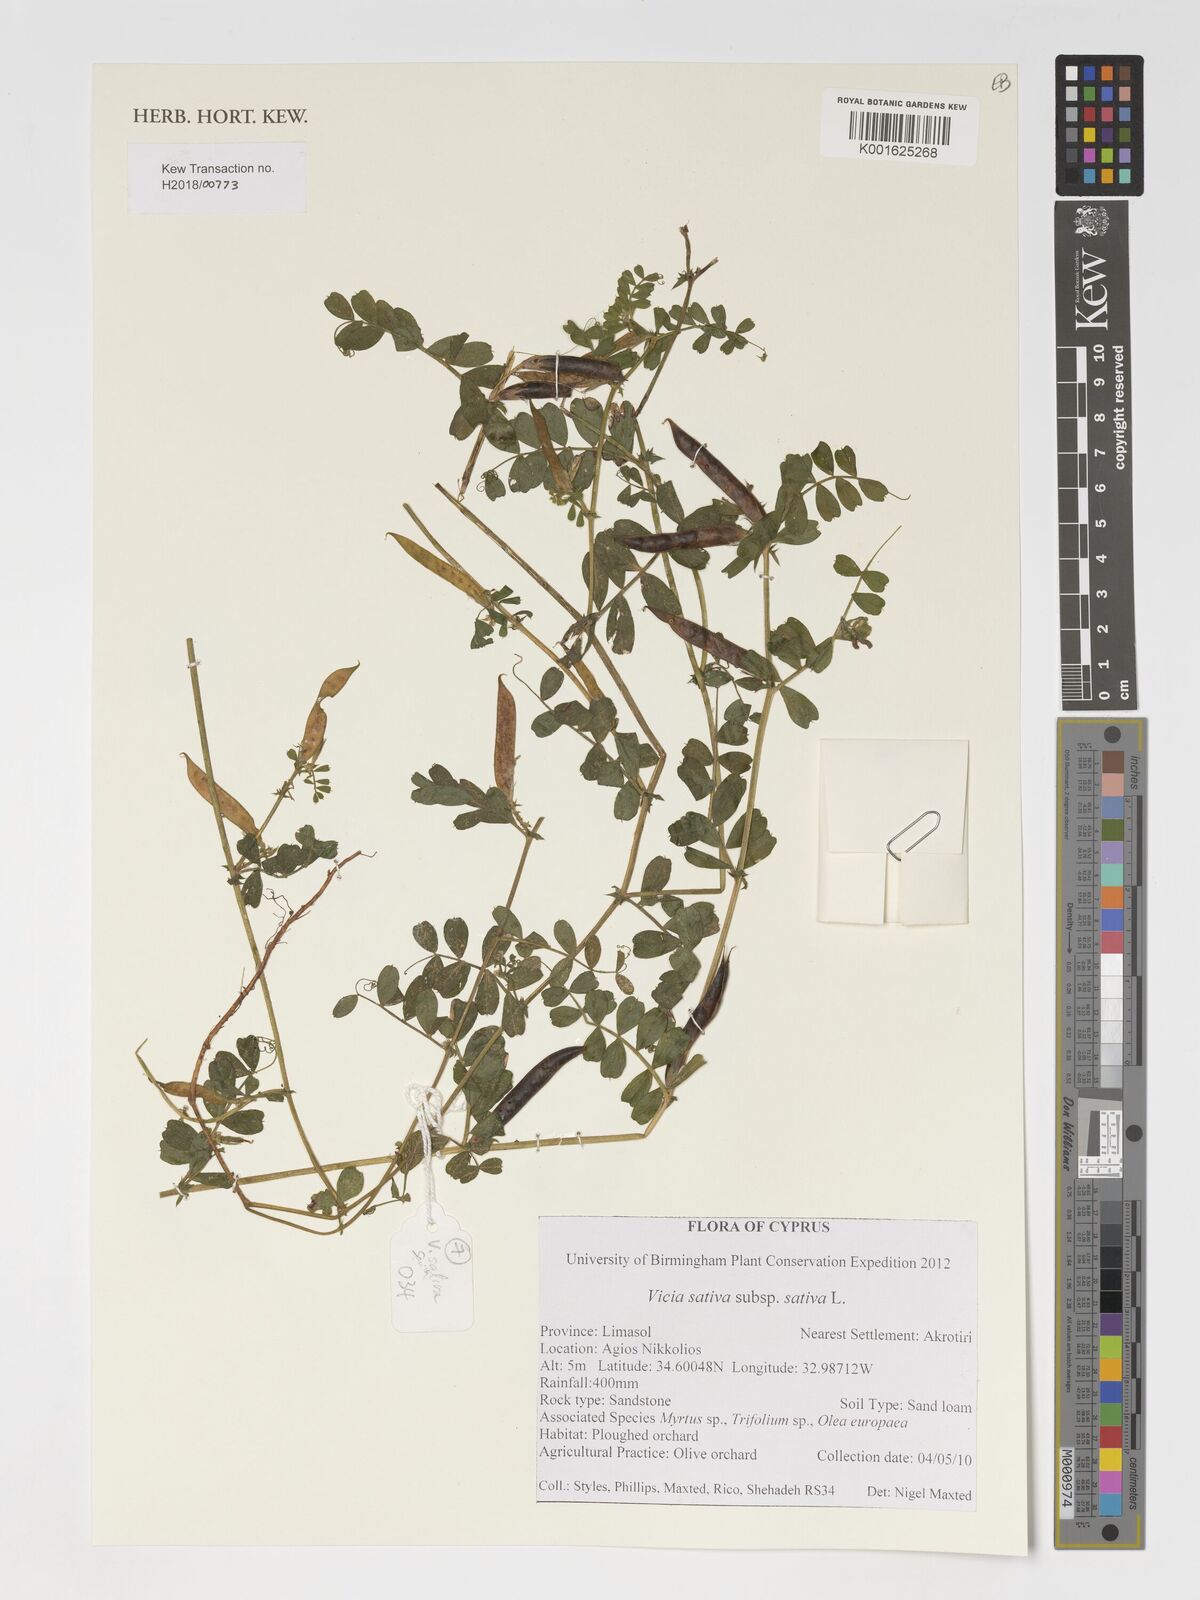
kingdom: Plantae
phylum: Tracheophyta
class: Magnoliopsida
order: Fabales
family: Fabaceae
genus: Vicia
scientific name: Vicia sativa
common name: Garden vetch
